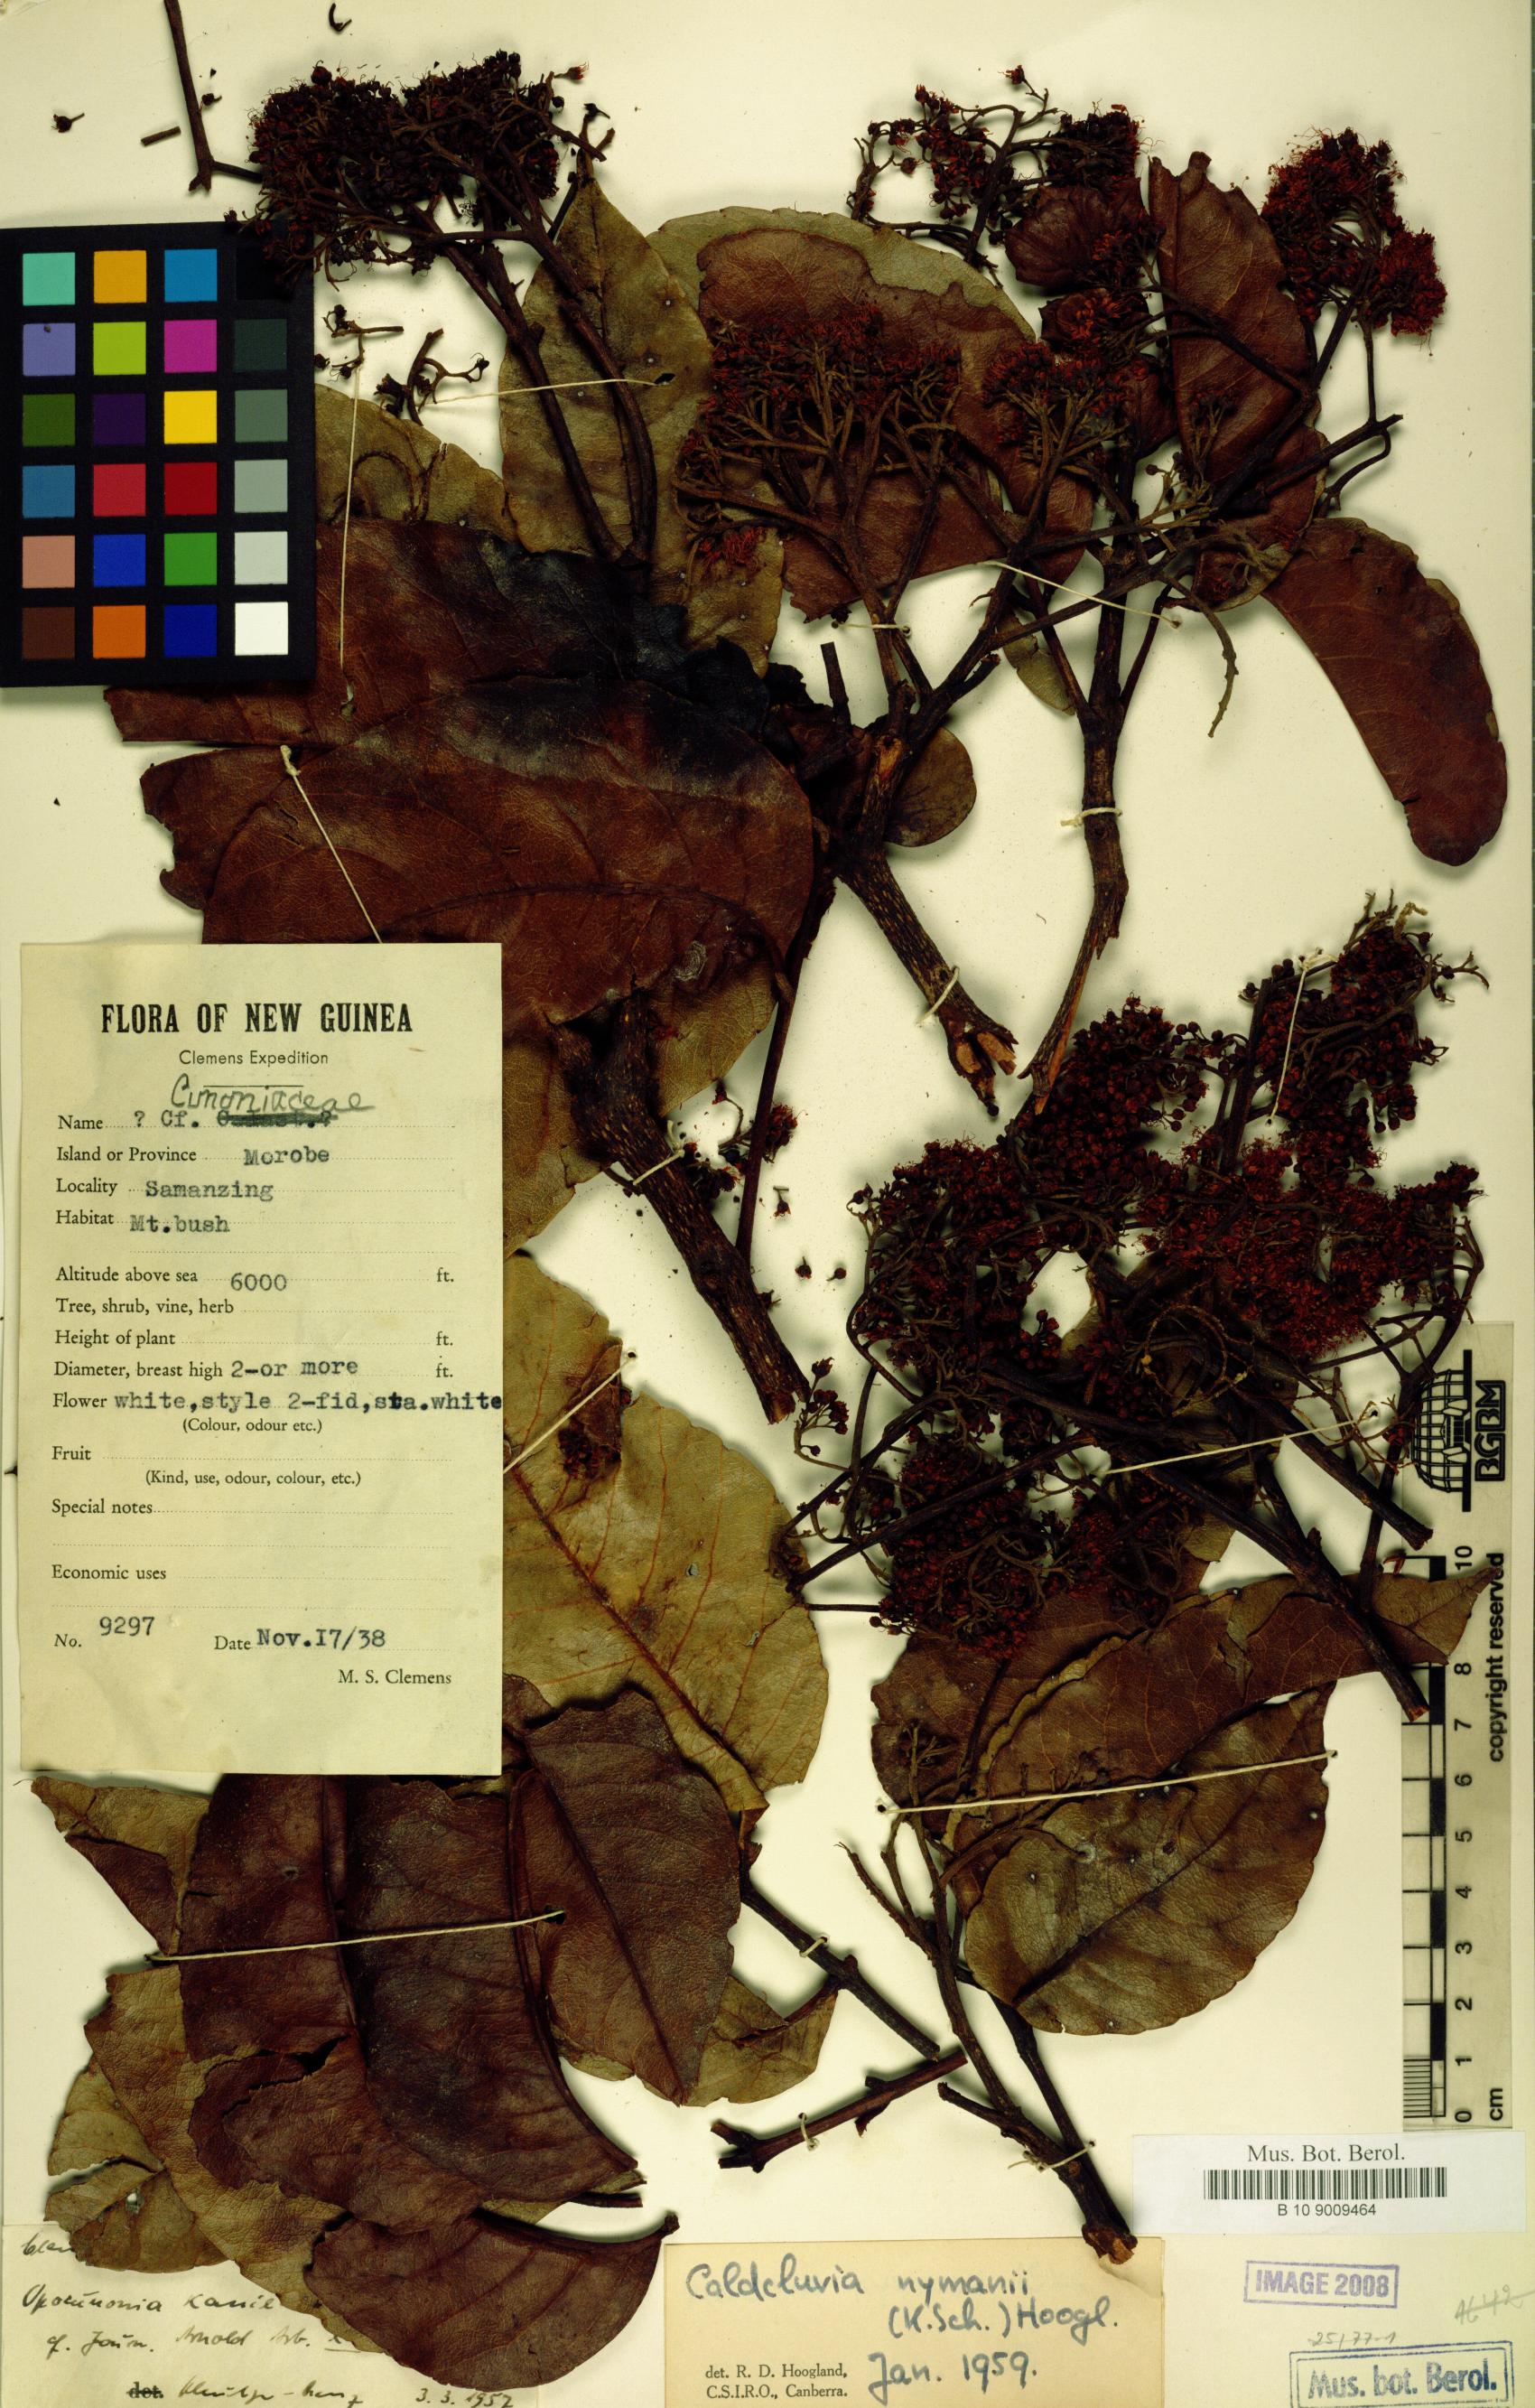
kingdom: Plantae
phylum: Tracheophyta
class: Magnoliopsida
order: Oxalidales
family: Cunoniaceae
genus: Opocunonia
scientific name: Opocunonia nymanii
